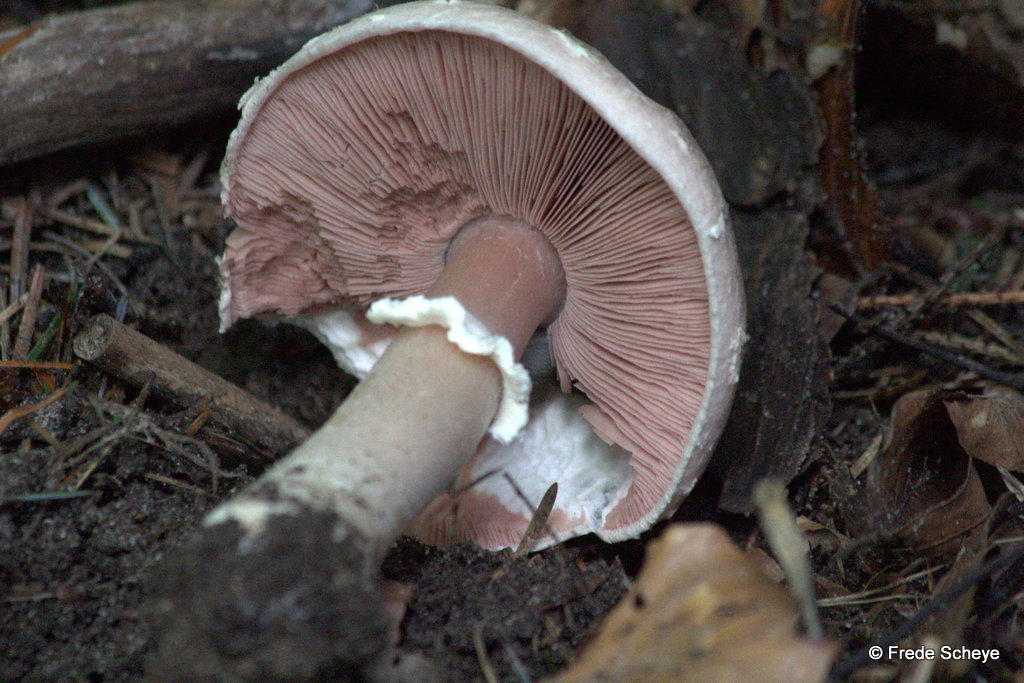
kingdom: Fungi
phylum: Basidiomycota
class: Agaricomycetes
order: Agaricales
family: Agaricaceae
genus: Agaricus
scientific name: Agaricus altipes
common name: sommer-champignon
